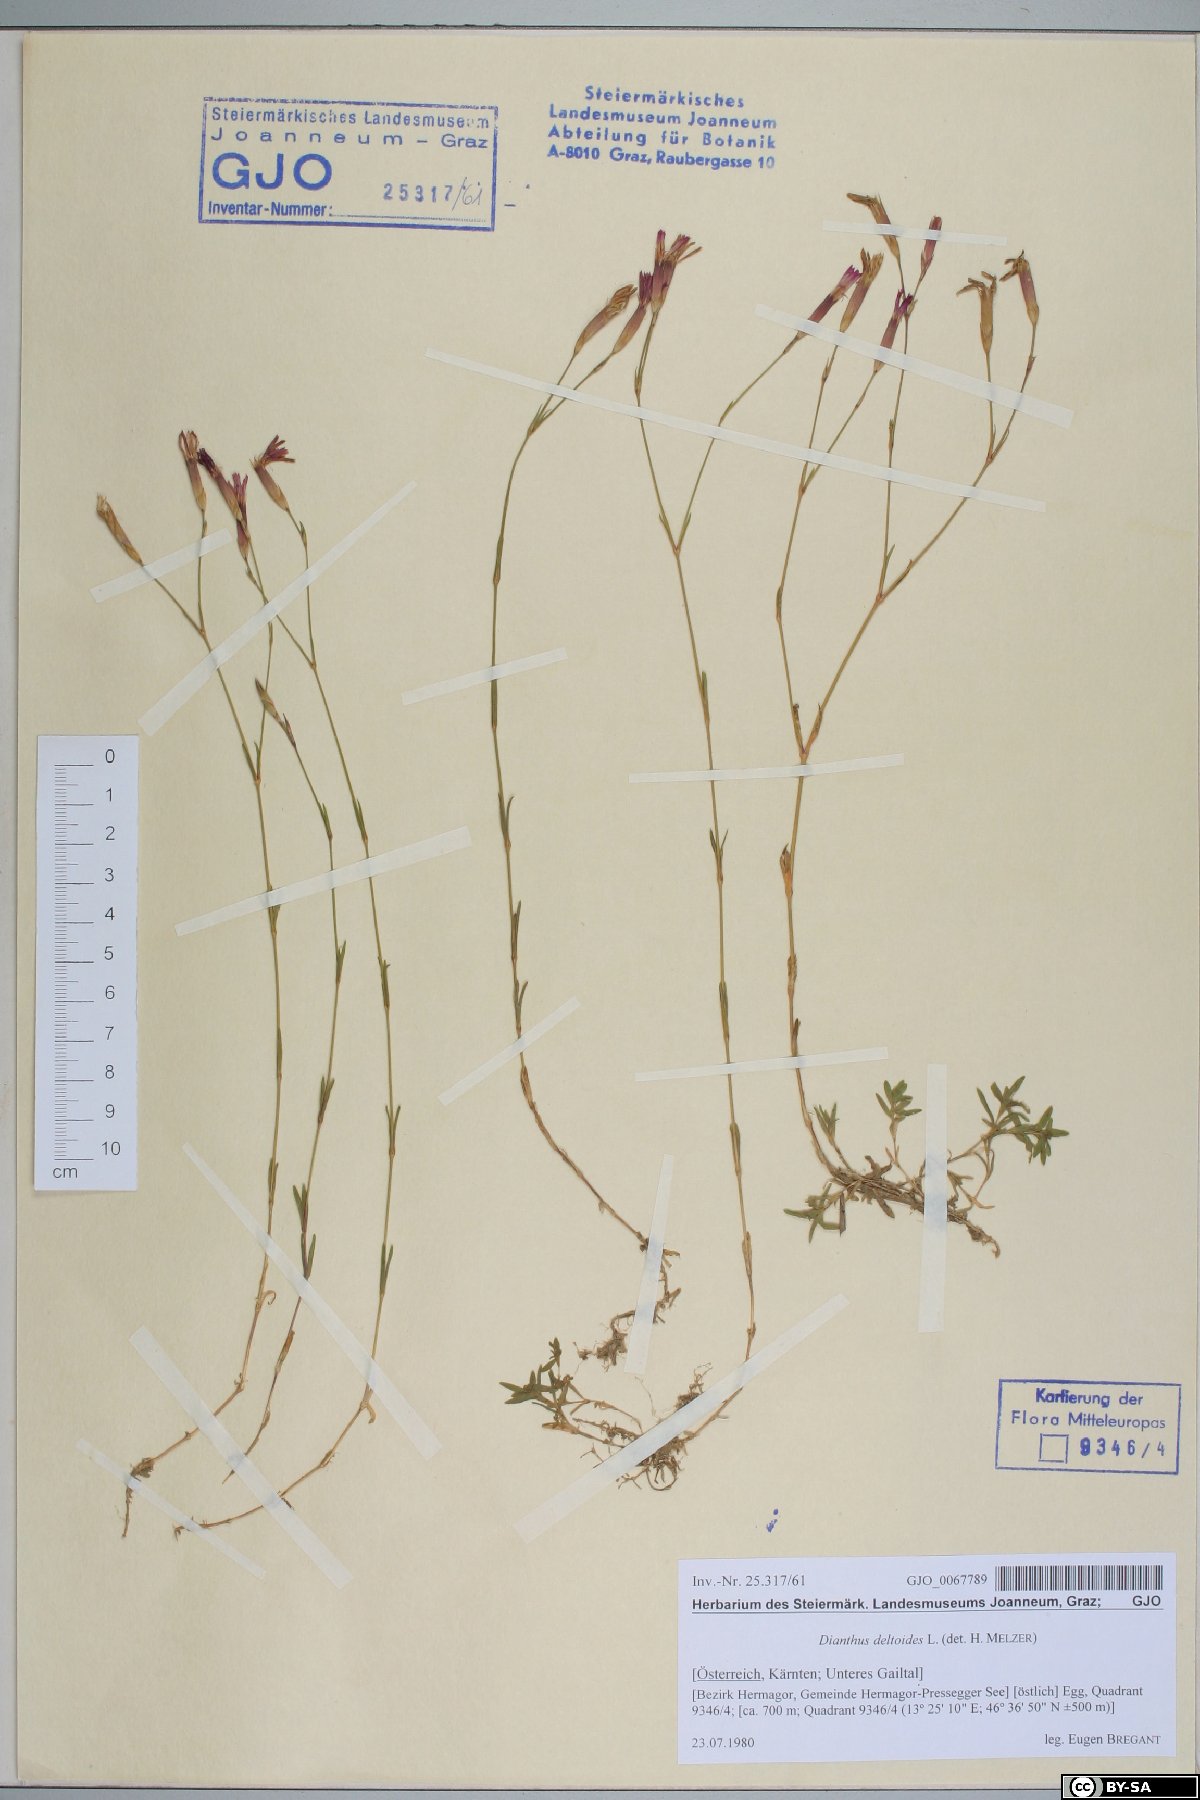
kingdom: Plantae
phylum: Tracheophyta
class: Magnoliopsida
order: Caryophyllales
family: Caryophyllaceae
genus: Dianthus
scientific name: Dianthus deltoides
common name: Maiden pink
